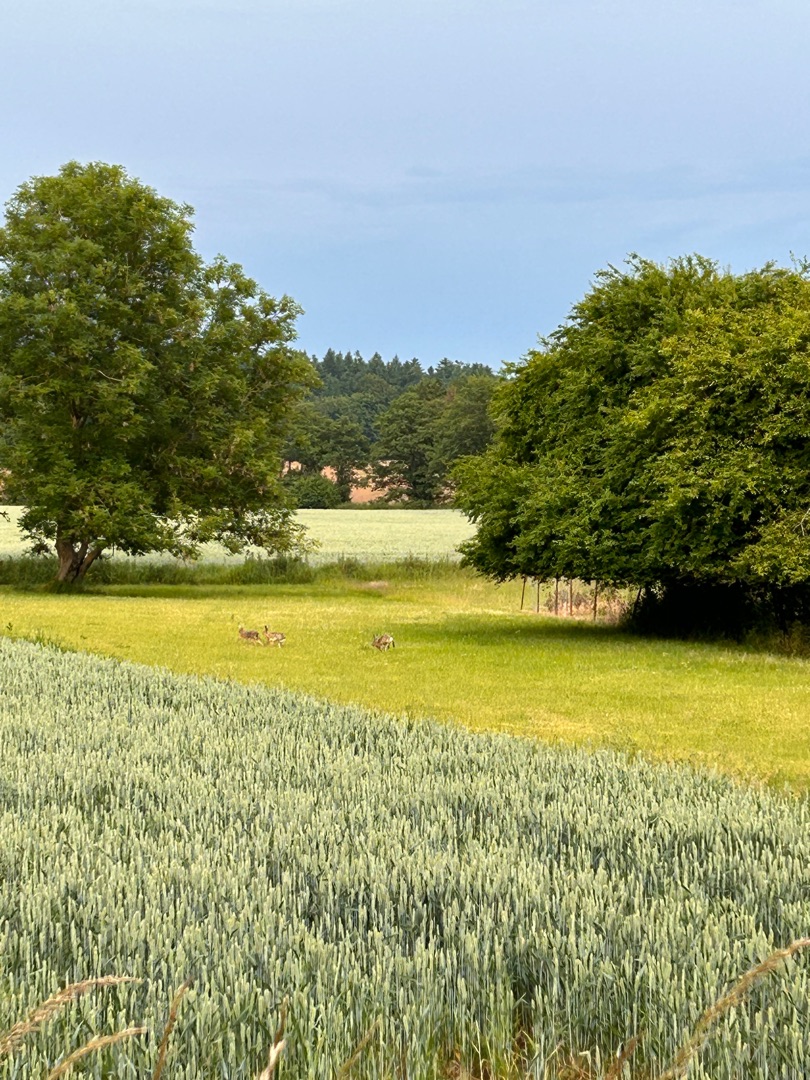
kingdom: Animalia
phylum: Chordata
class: Mammalia
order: Lagomorpha
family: Leporidae
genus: Lepus
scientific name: Lepus europaeus
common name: Hare
